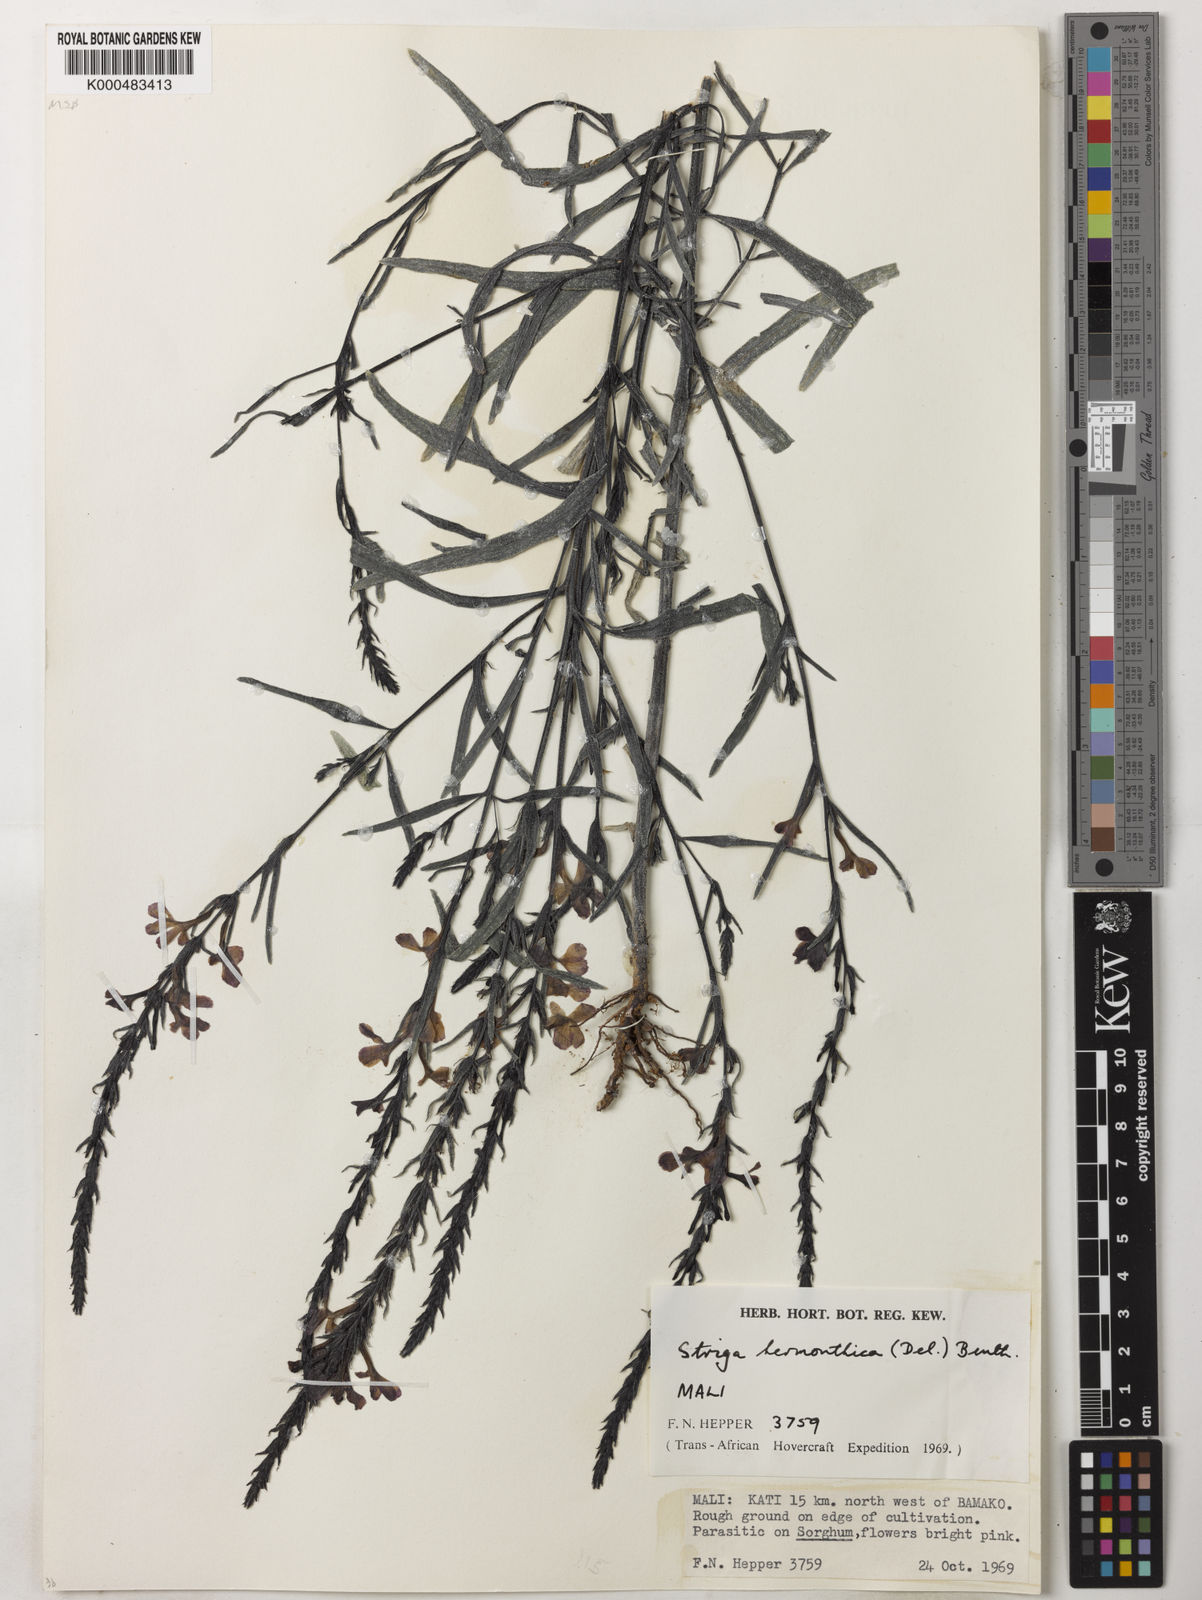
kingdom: Plantae
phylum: Tracheophyta
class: Magnoliopsida
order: Lamiales
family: Orobanchaceae
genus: Striga
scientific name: Striga hermonthica
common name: Purple witchweed
